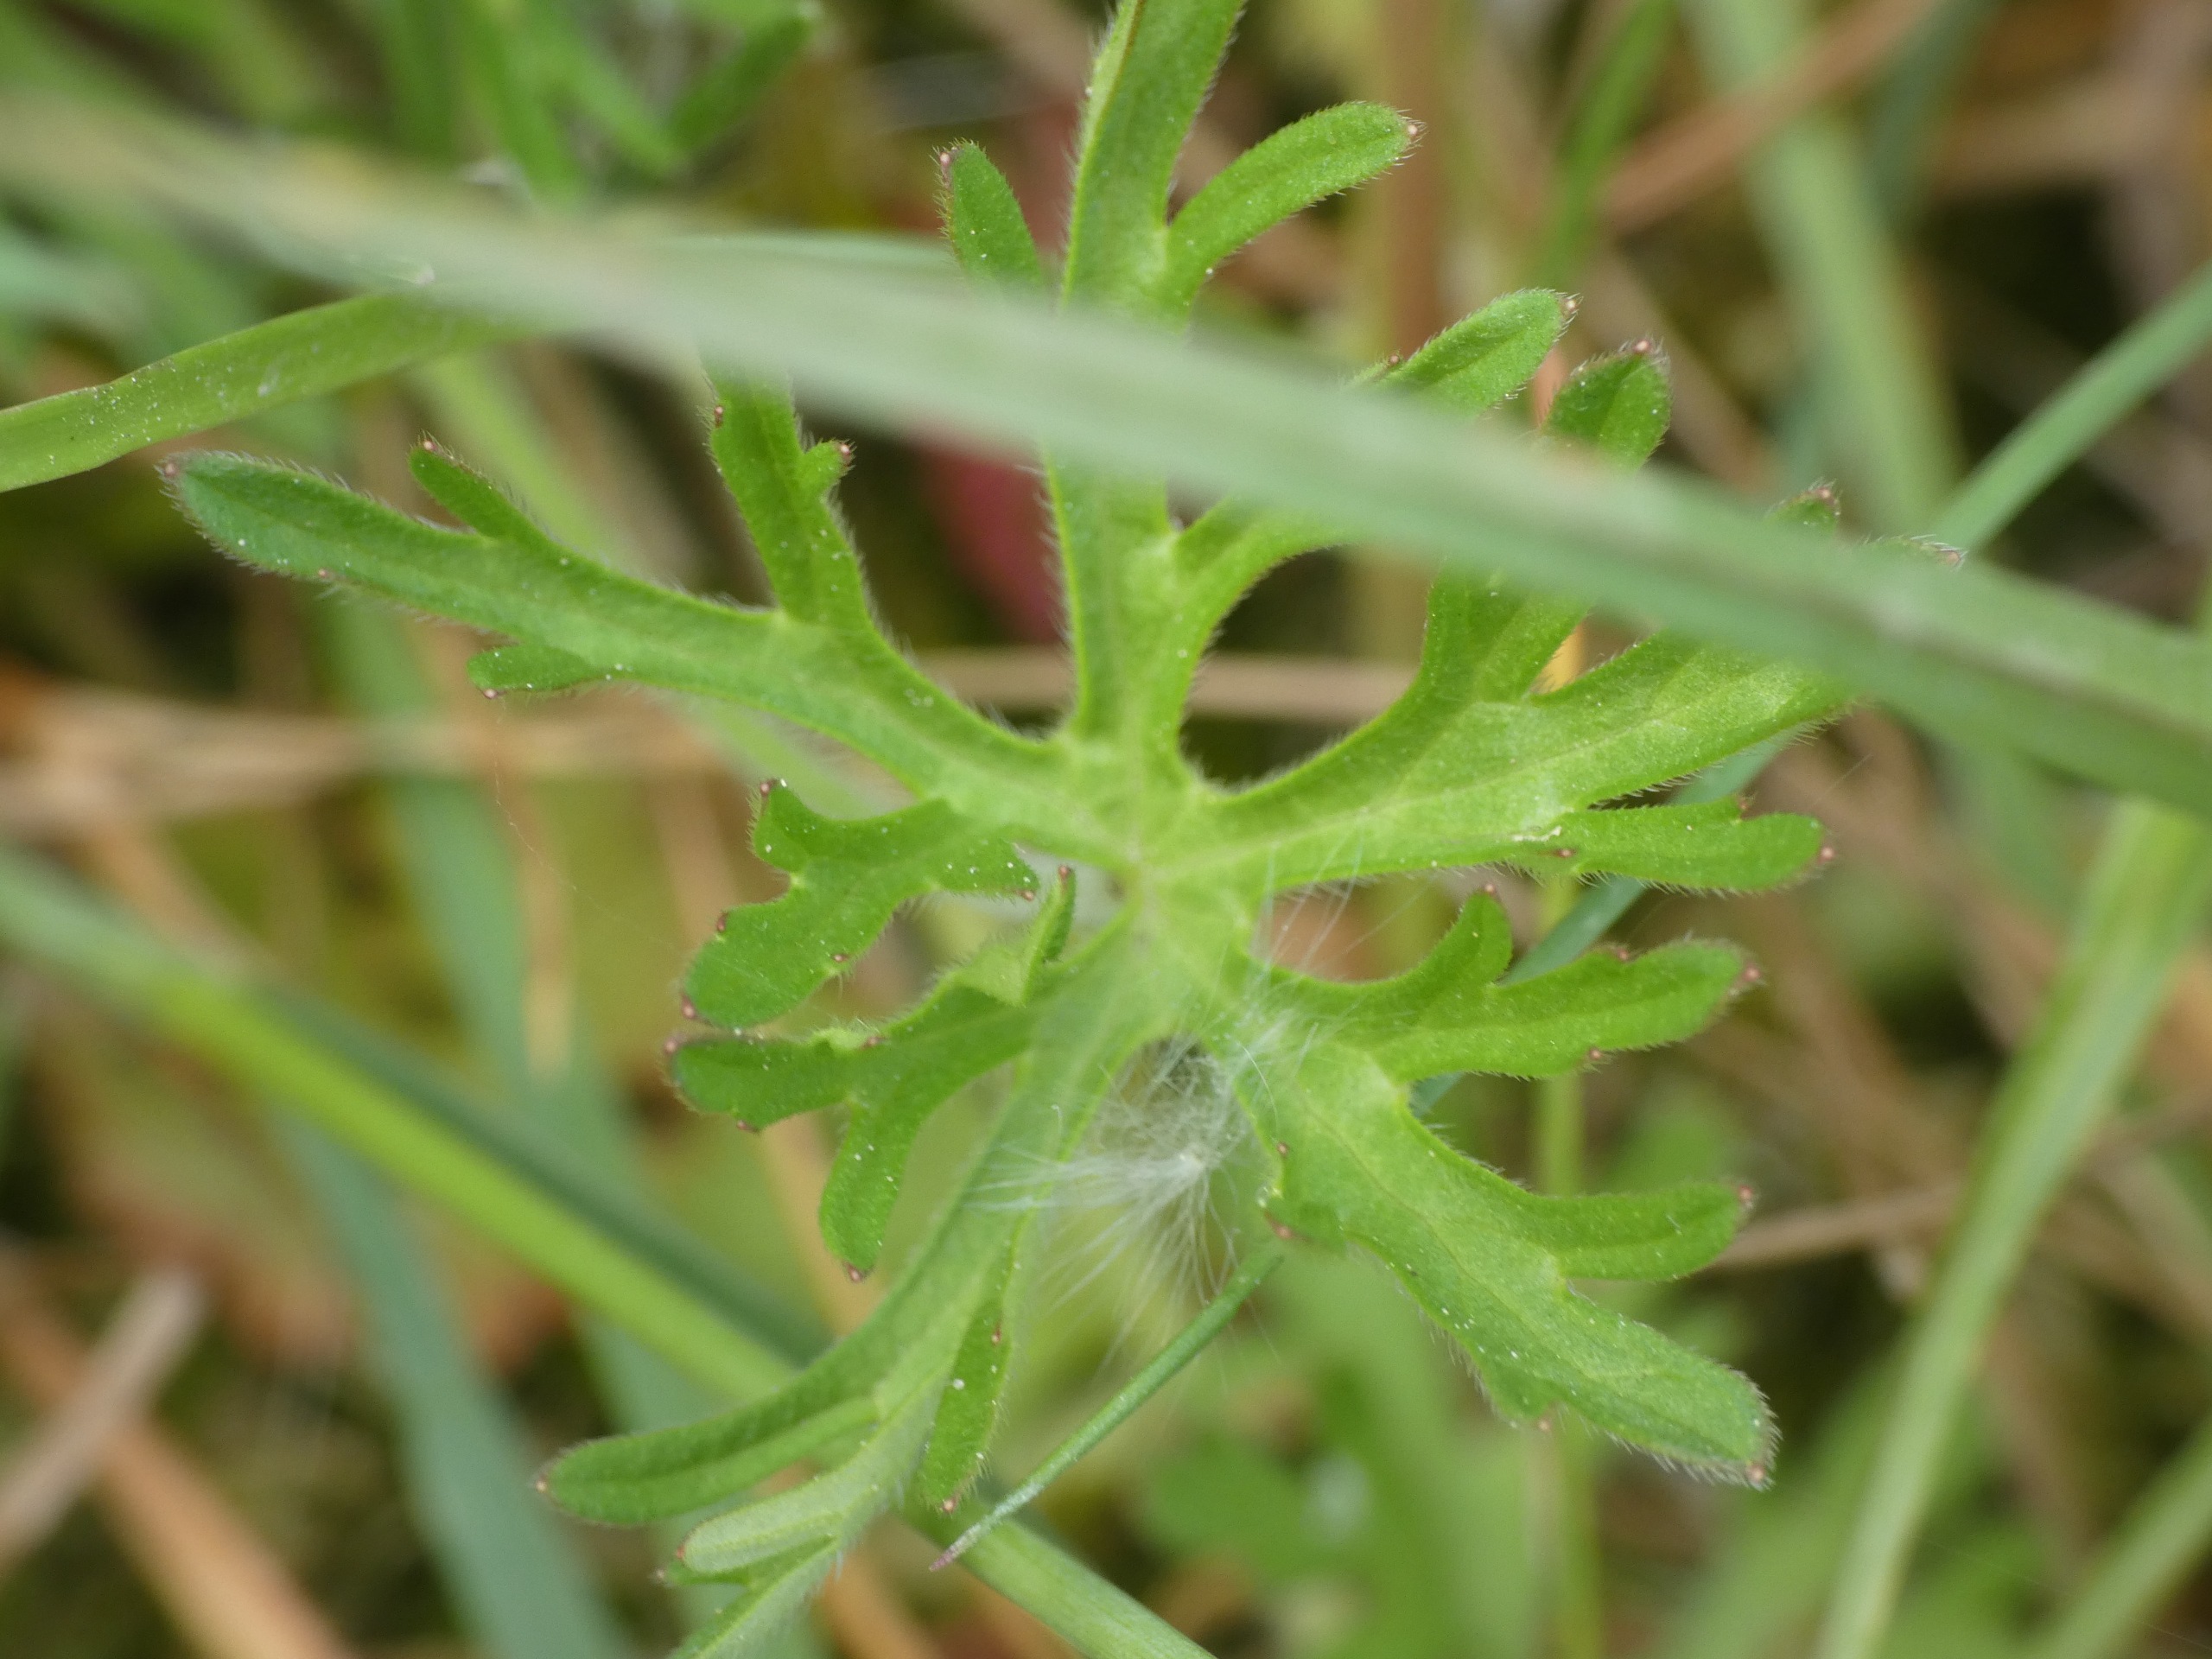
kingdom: Plantae
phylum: Tracheophyta
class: Magnoliopsida
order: Geraniales
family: Geraniaceae
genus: Geranium
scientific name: Geranium dissectum
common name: Kløftet storkenæb
